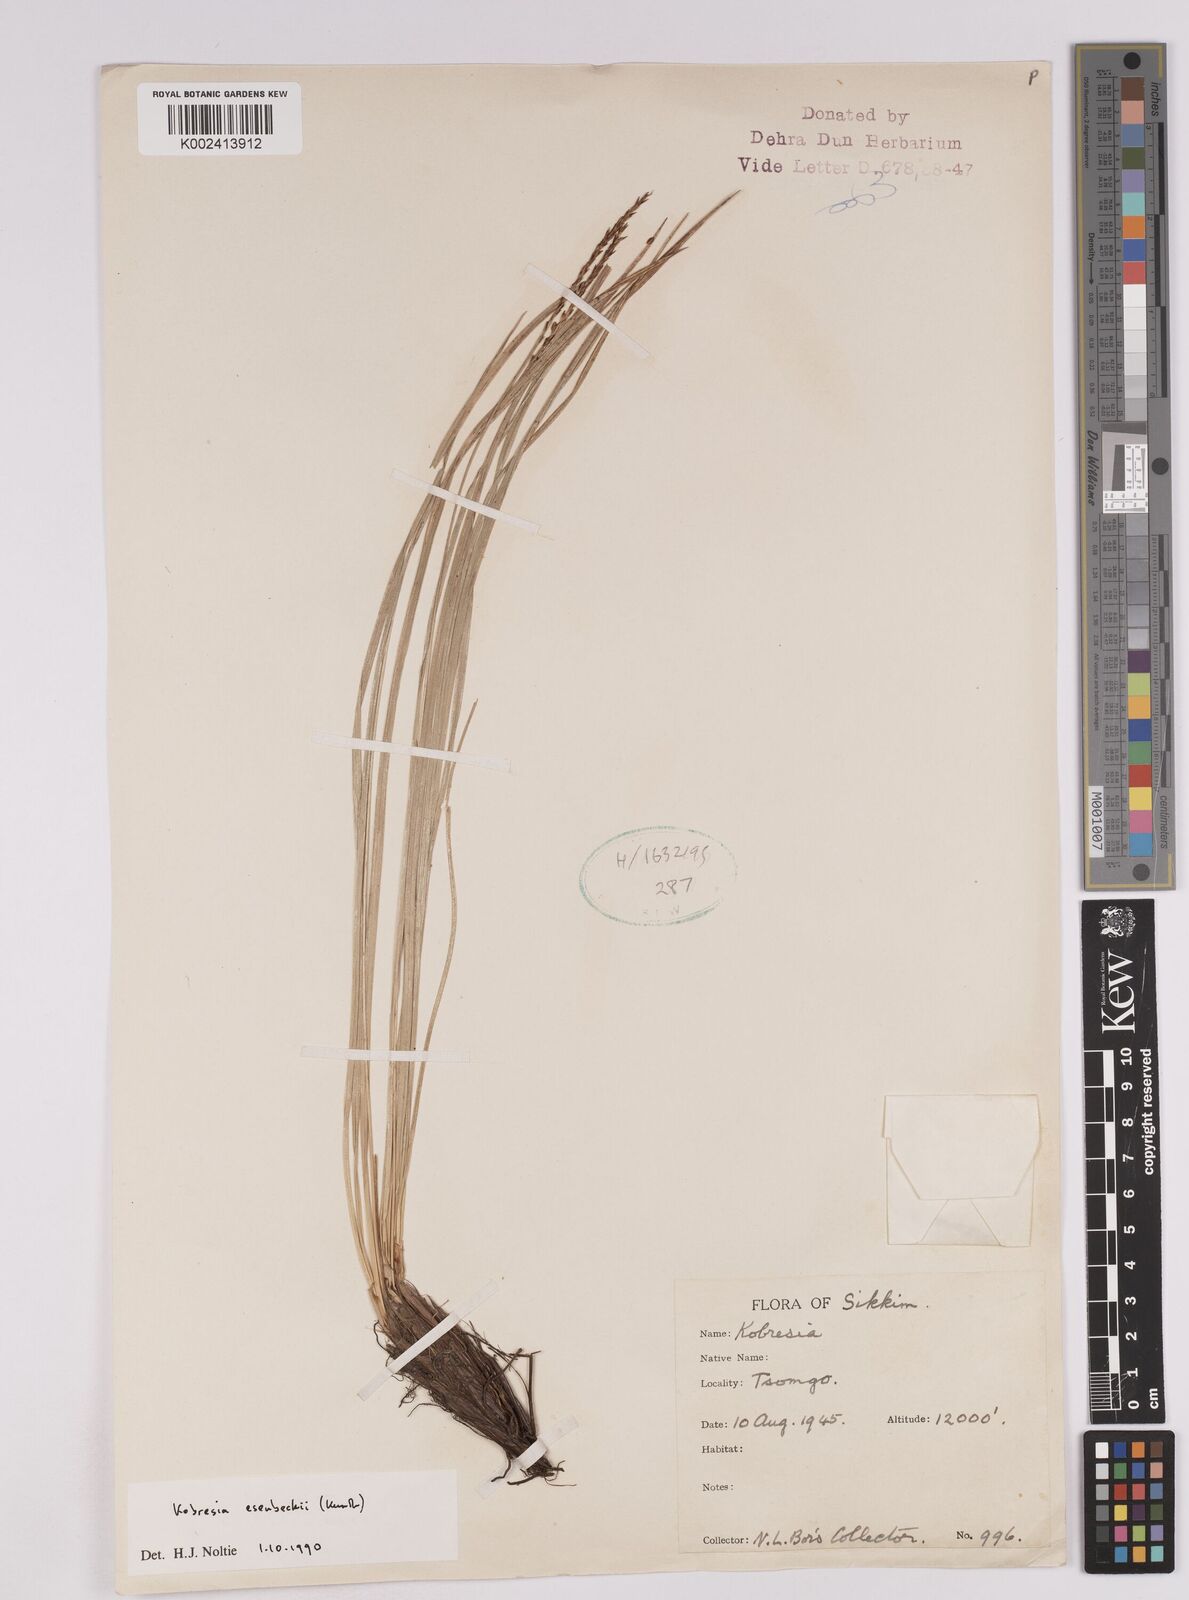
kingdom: Plantae
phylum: Tracheophyta
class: Liliopsida
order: Poales
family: Cyperaceae
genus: Carex
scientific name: Carex esenbeckii
